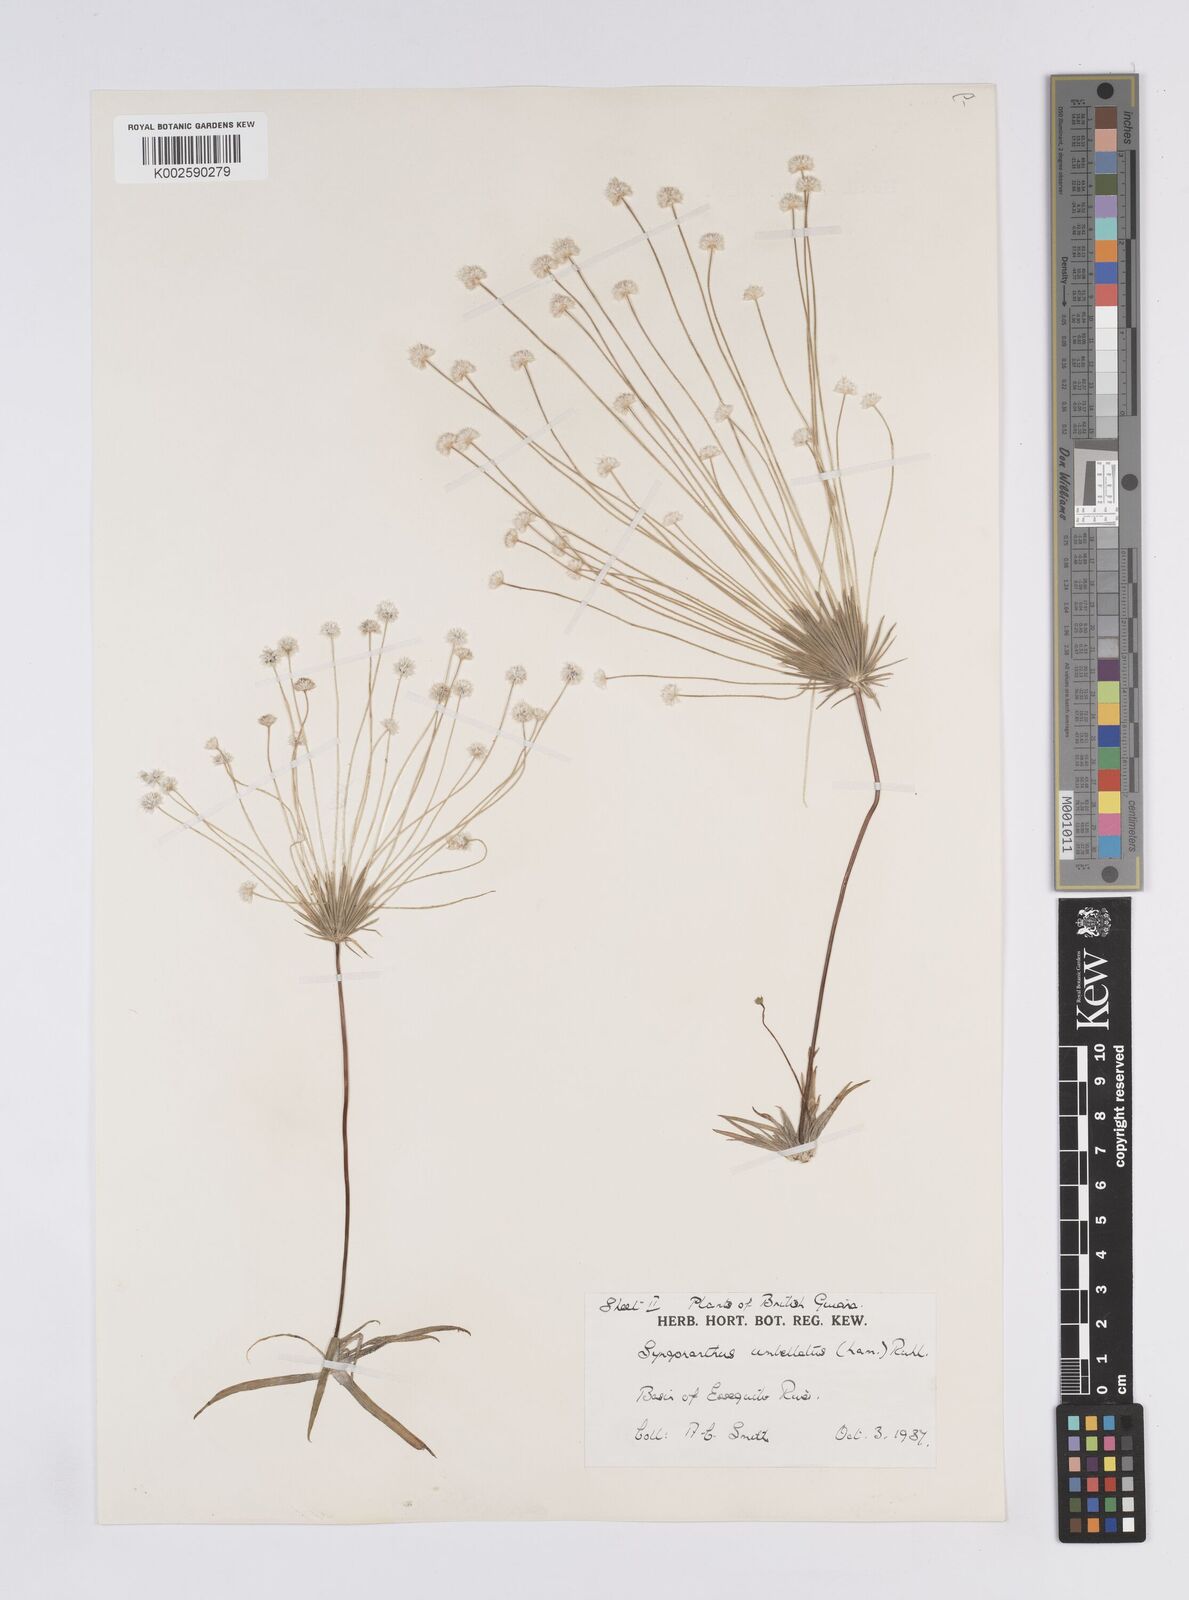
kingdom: Plantae
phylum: Tracheophyta
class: Liliopsida
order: Poales
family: Eriocaulaceae
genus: Syngonanthus
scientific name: Syngonanthus umbellatus
